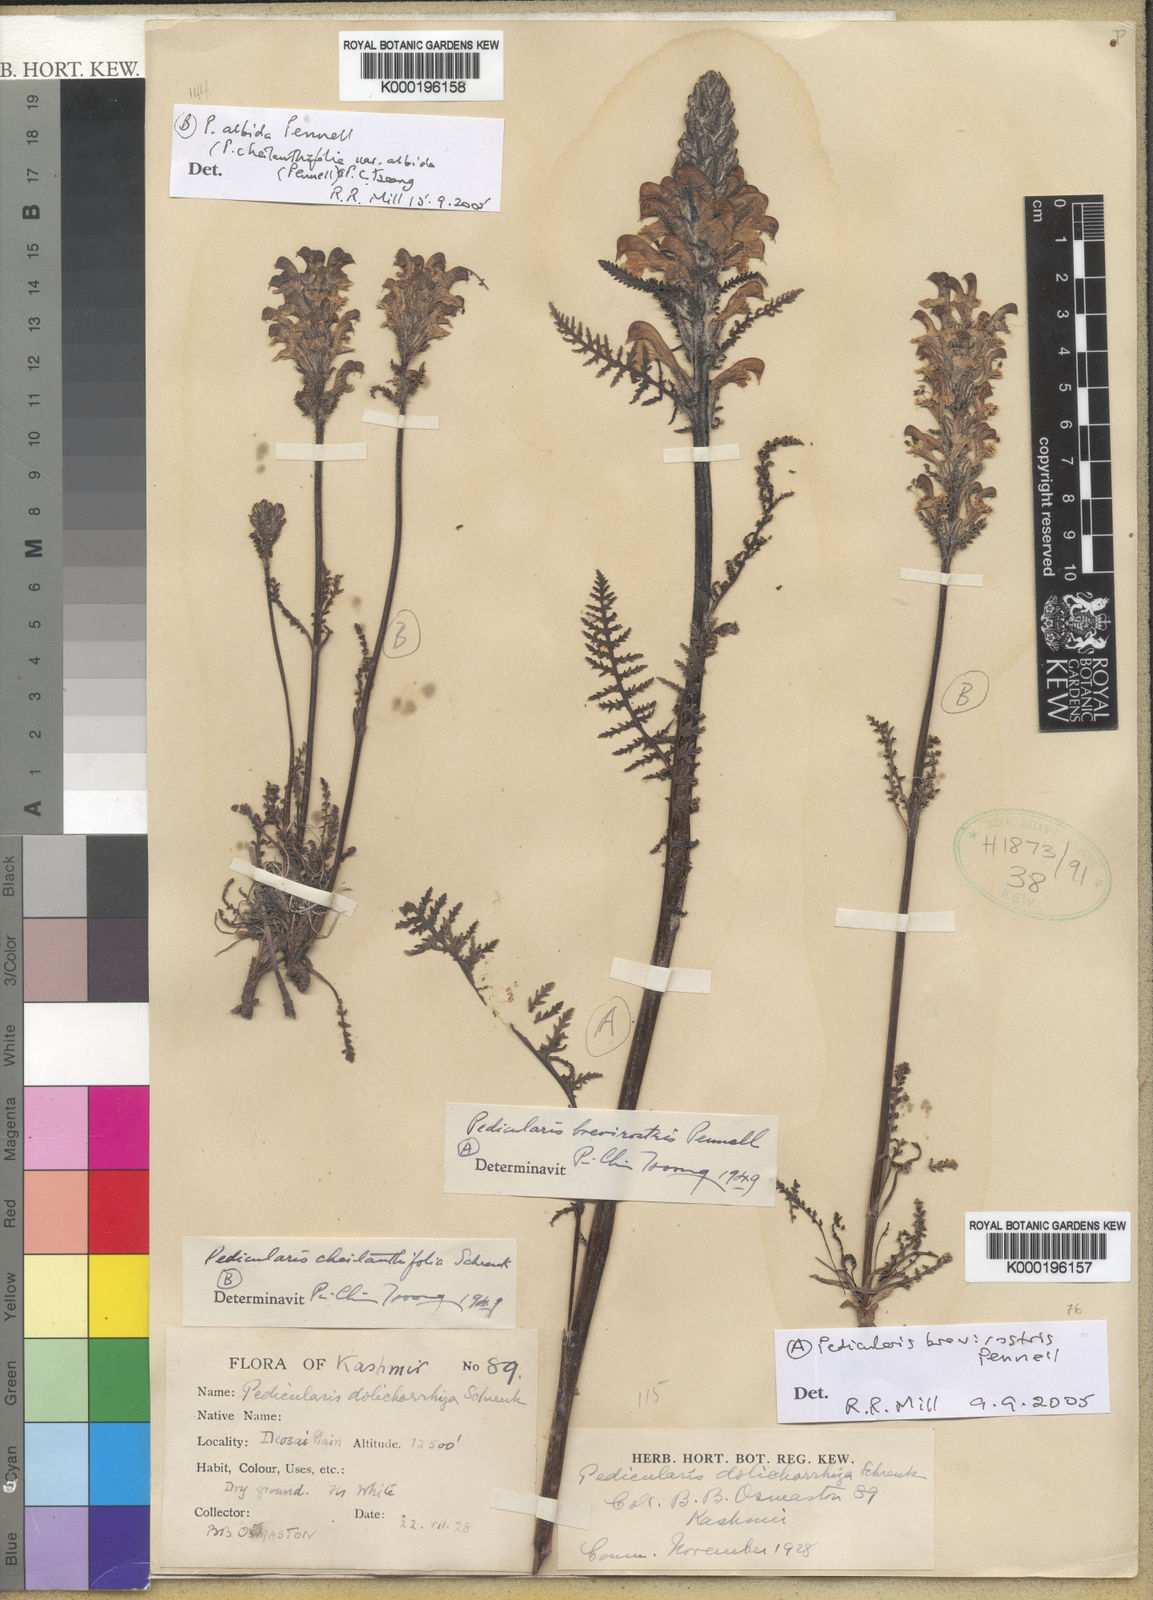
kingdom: Plantae
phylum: Tracheophyta
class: Magnoliopsida
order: Lamiales
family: Orobanchaceae
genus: Pedicularis
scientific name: Pedicularis albida
